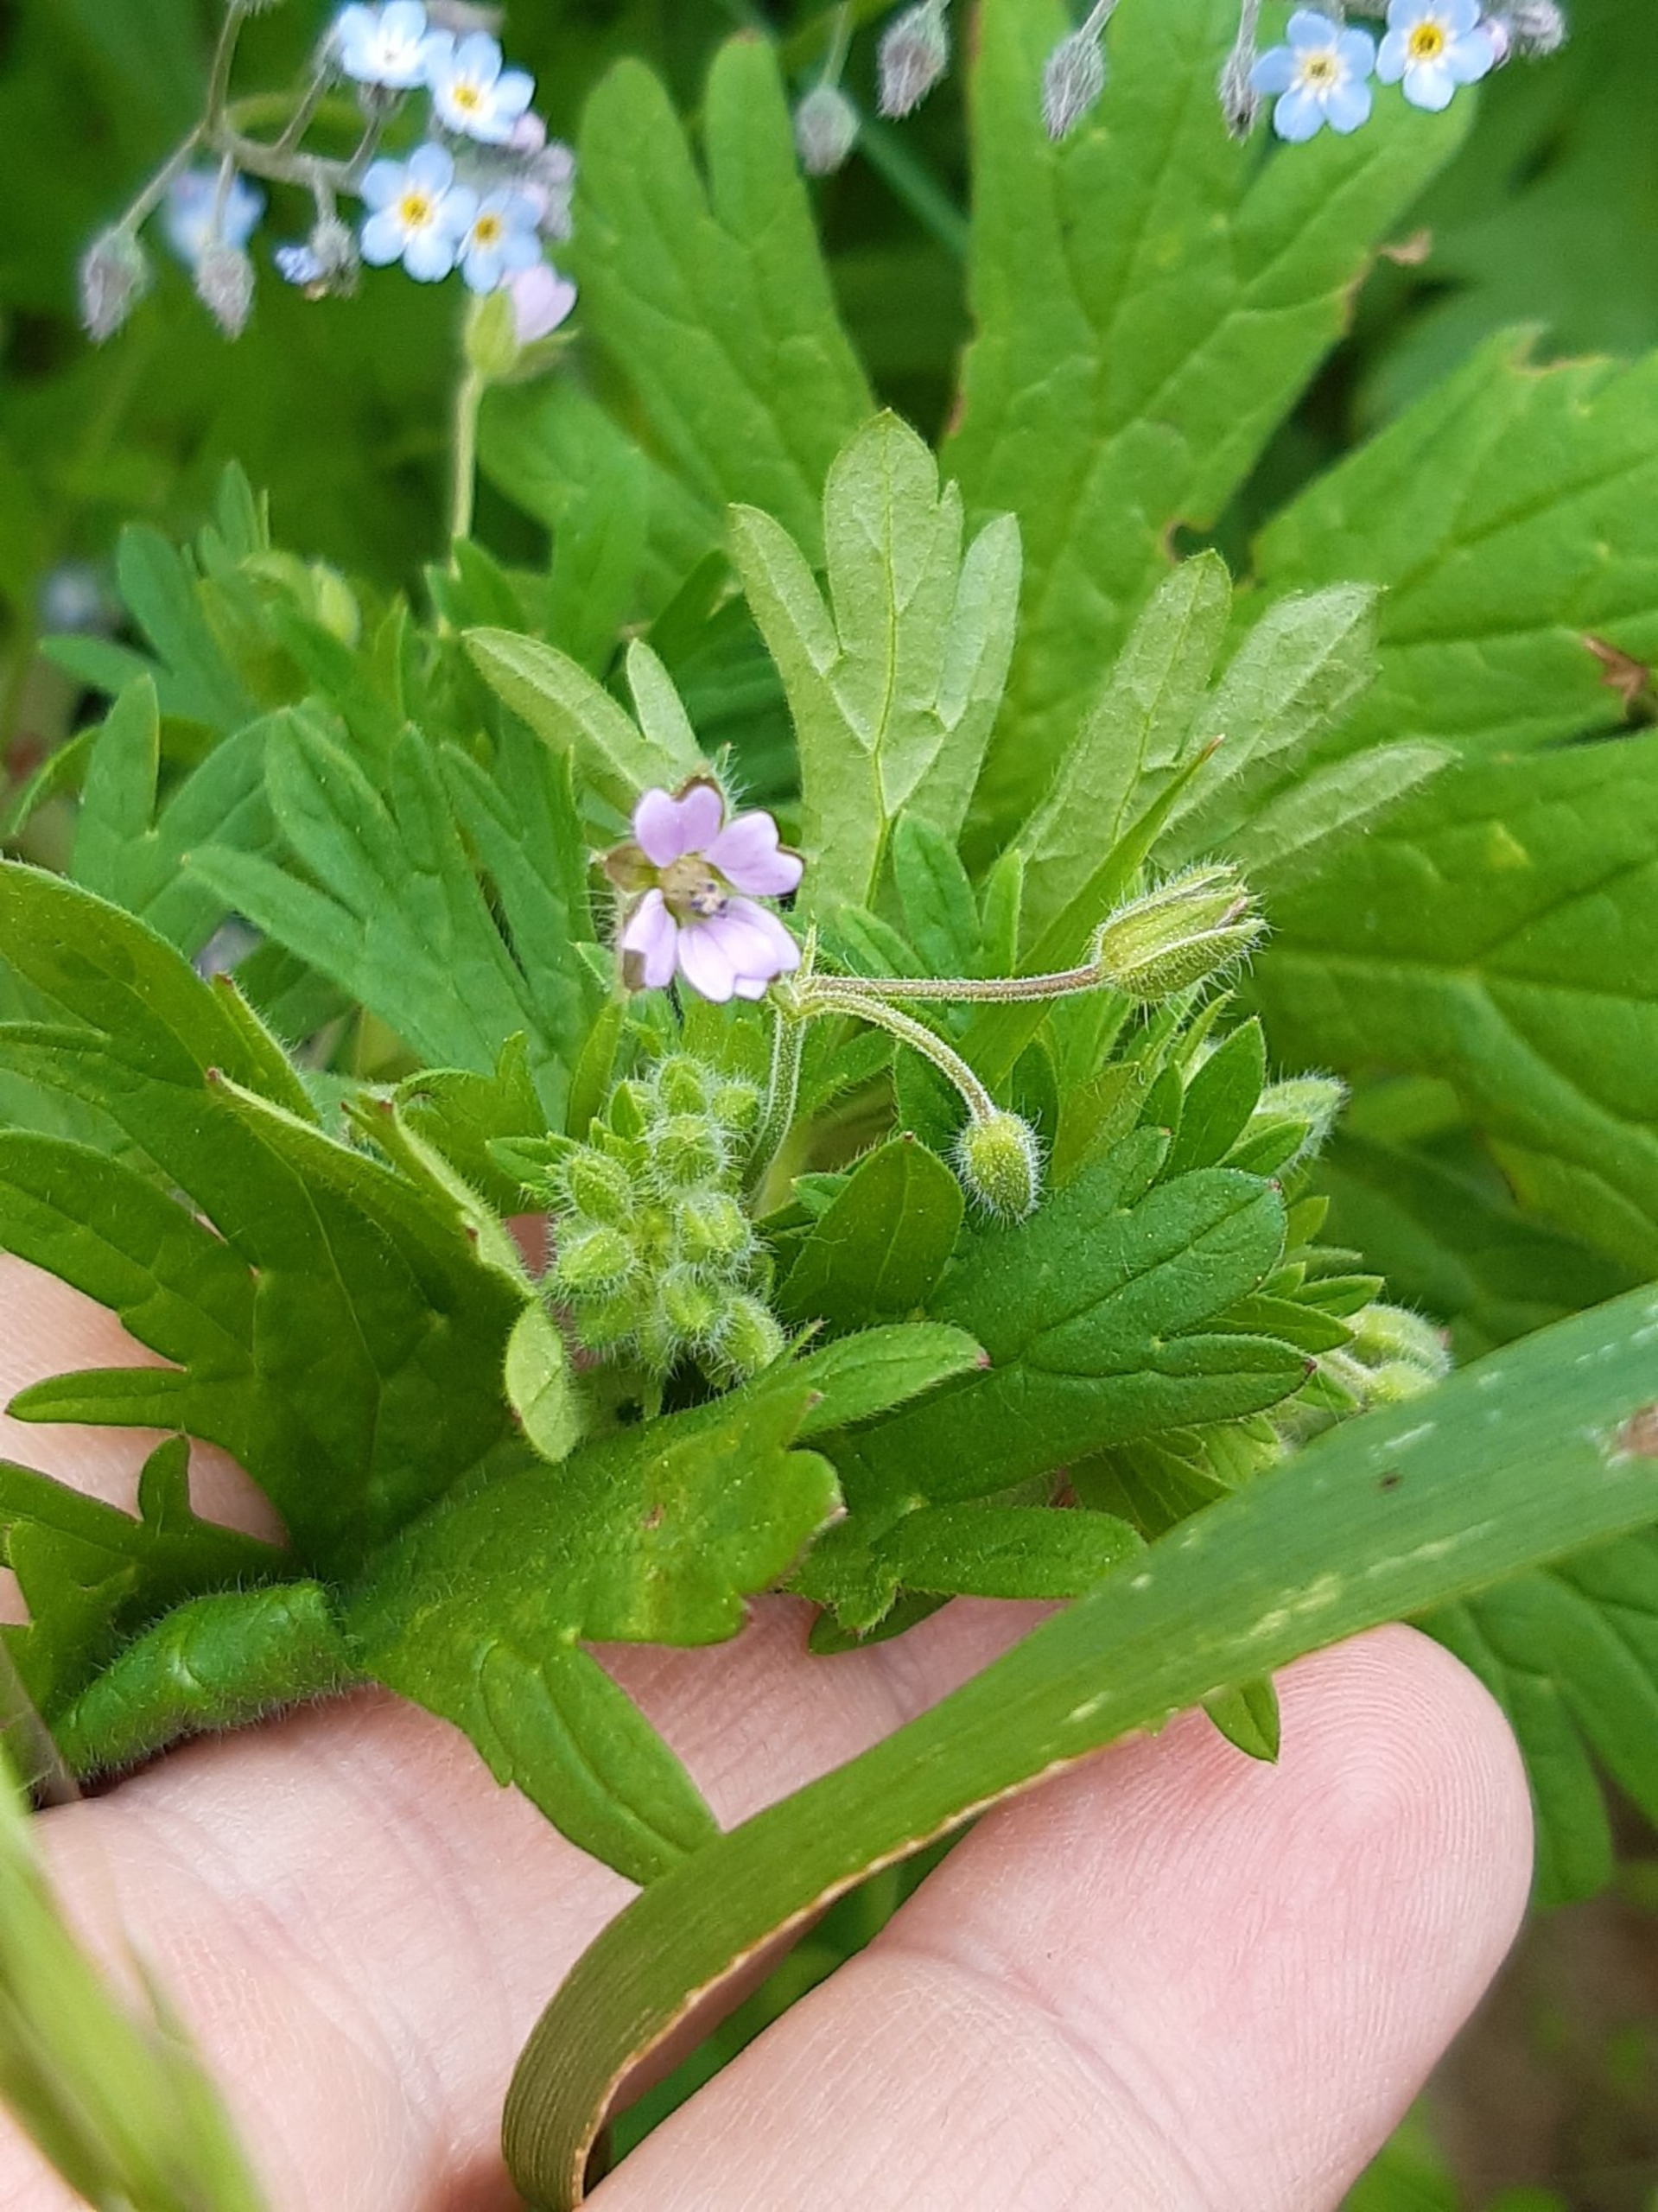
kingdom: Plantae
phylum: Tracheophyta
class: Magnoliopsida
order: Geraniales
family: Geraniaceae
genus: Geranium
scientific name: Geranium pusillum
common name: Liden storkenæb
